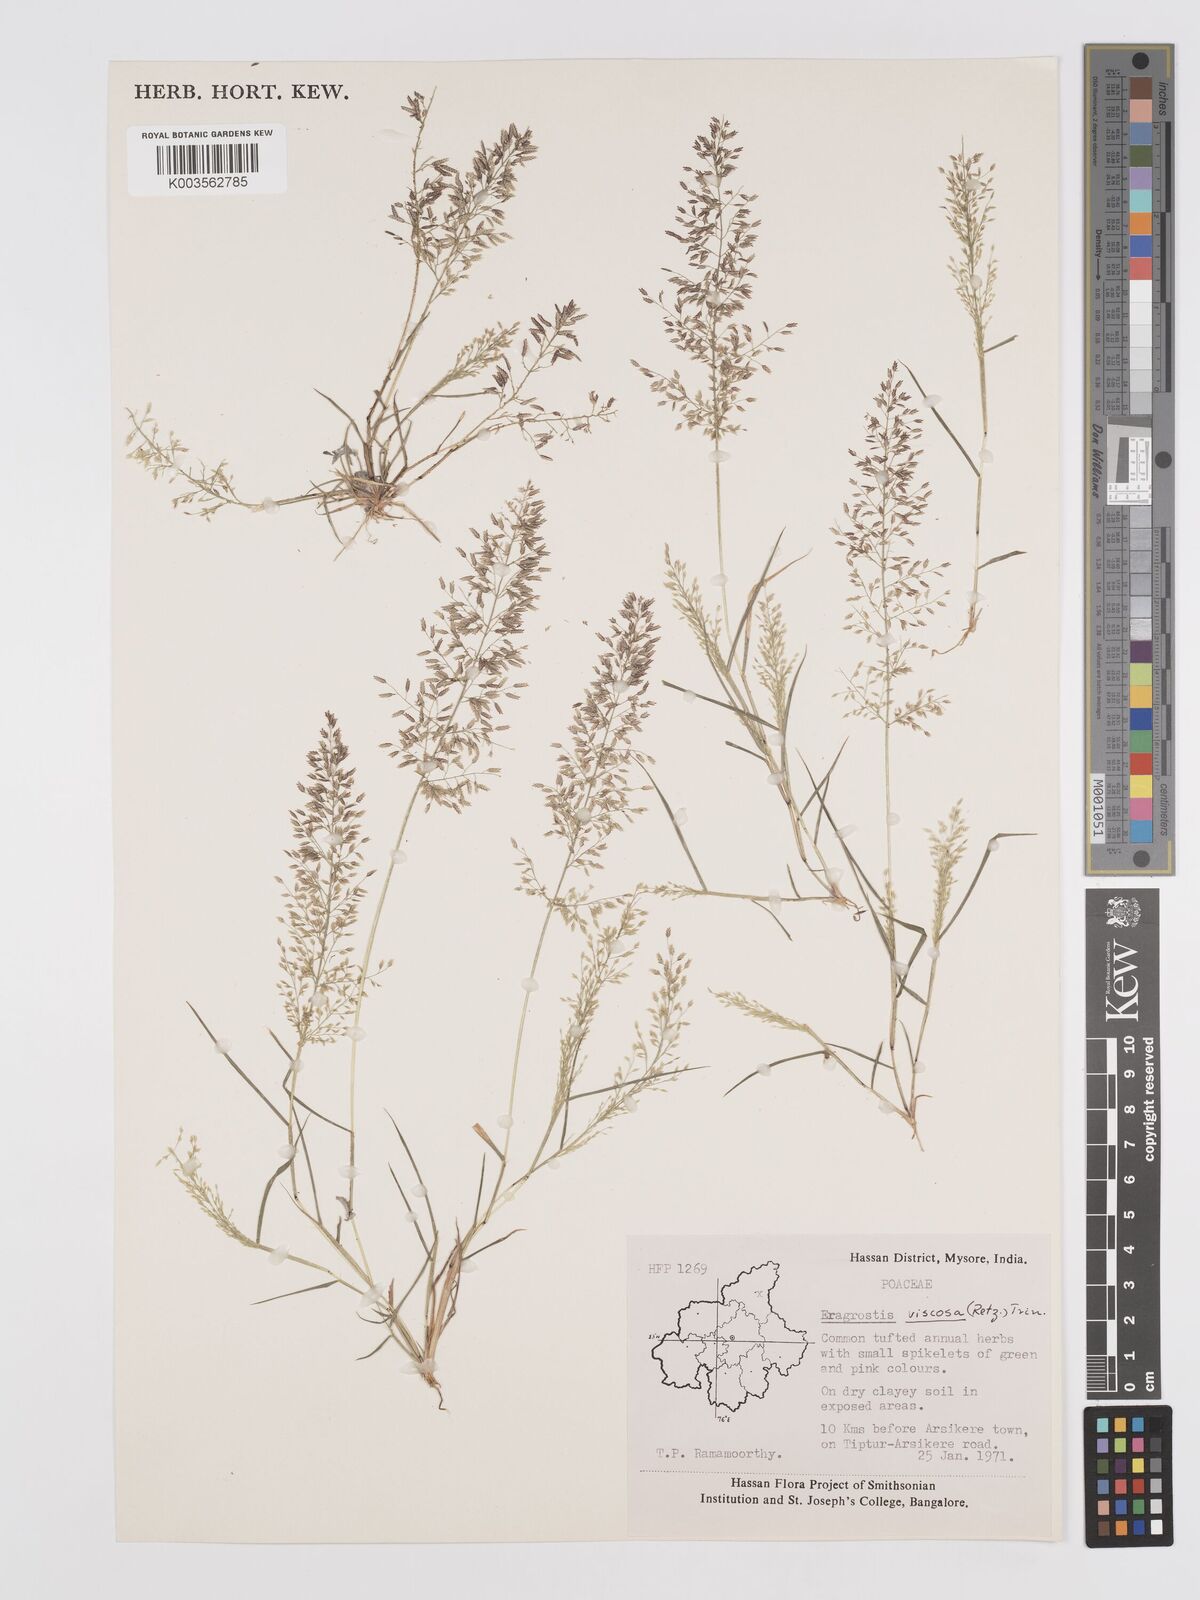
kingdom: Plantae
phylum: Tracheophyta
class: Liliopsida
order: Poales
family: Poaceae
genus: Eragrostis
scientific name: Eragrostis viscosa
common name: Sticky love grass
